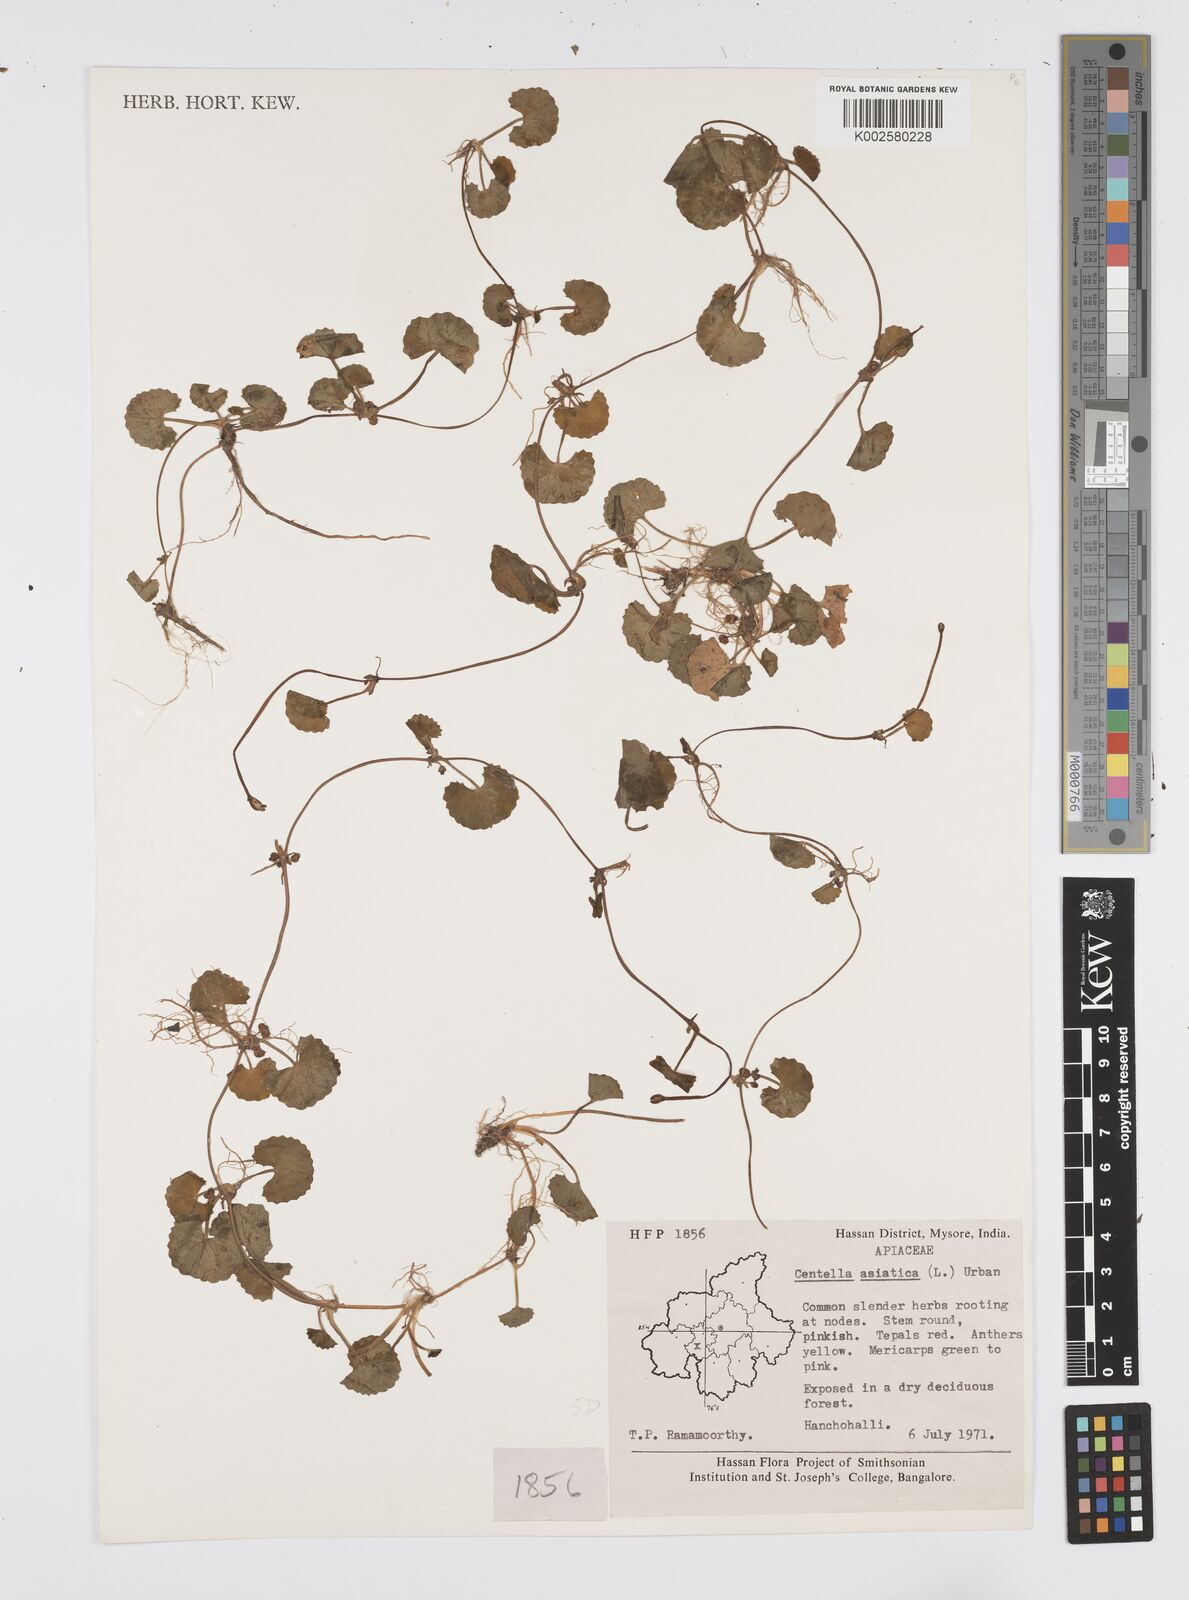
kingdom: Plantae
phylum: Tracheophyta
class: Magnoliopsida
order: Apiales
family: Apiaceae
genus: Centella
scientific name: Centella asiatica
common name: Spadeleaf
